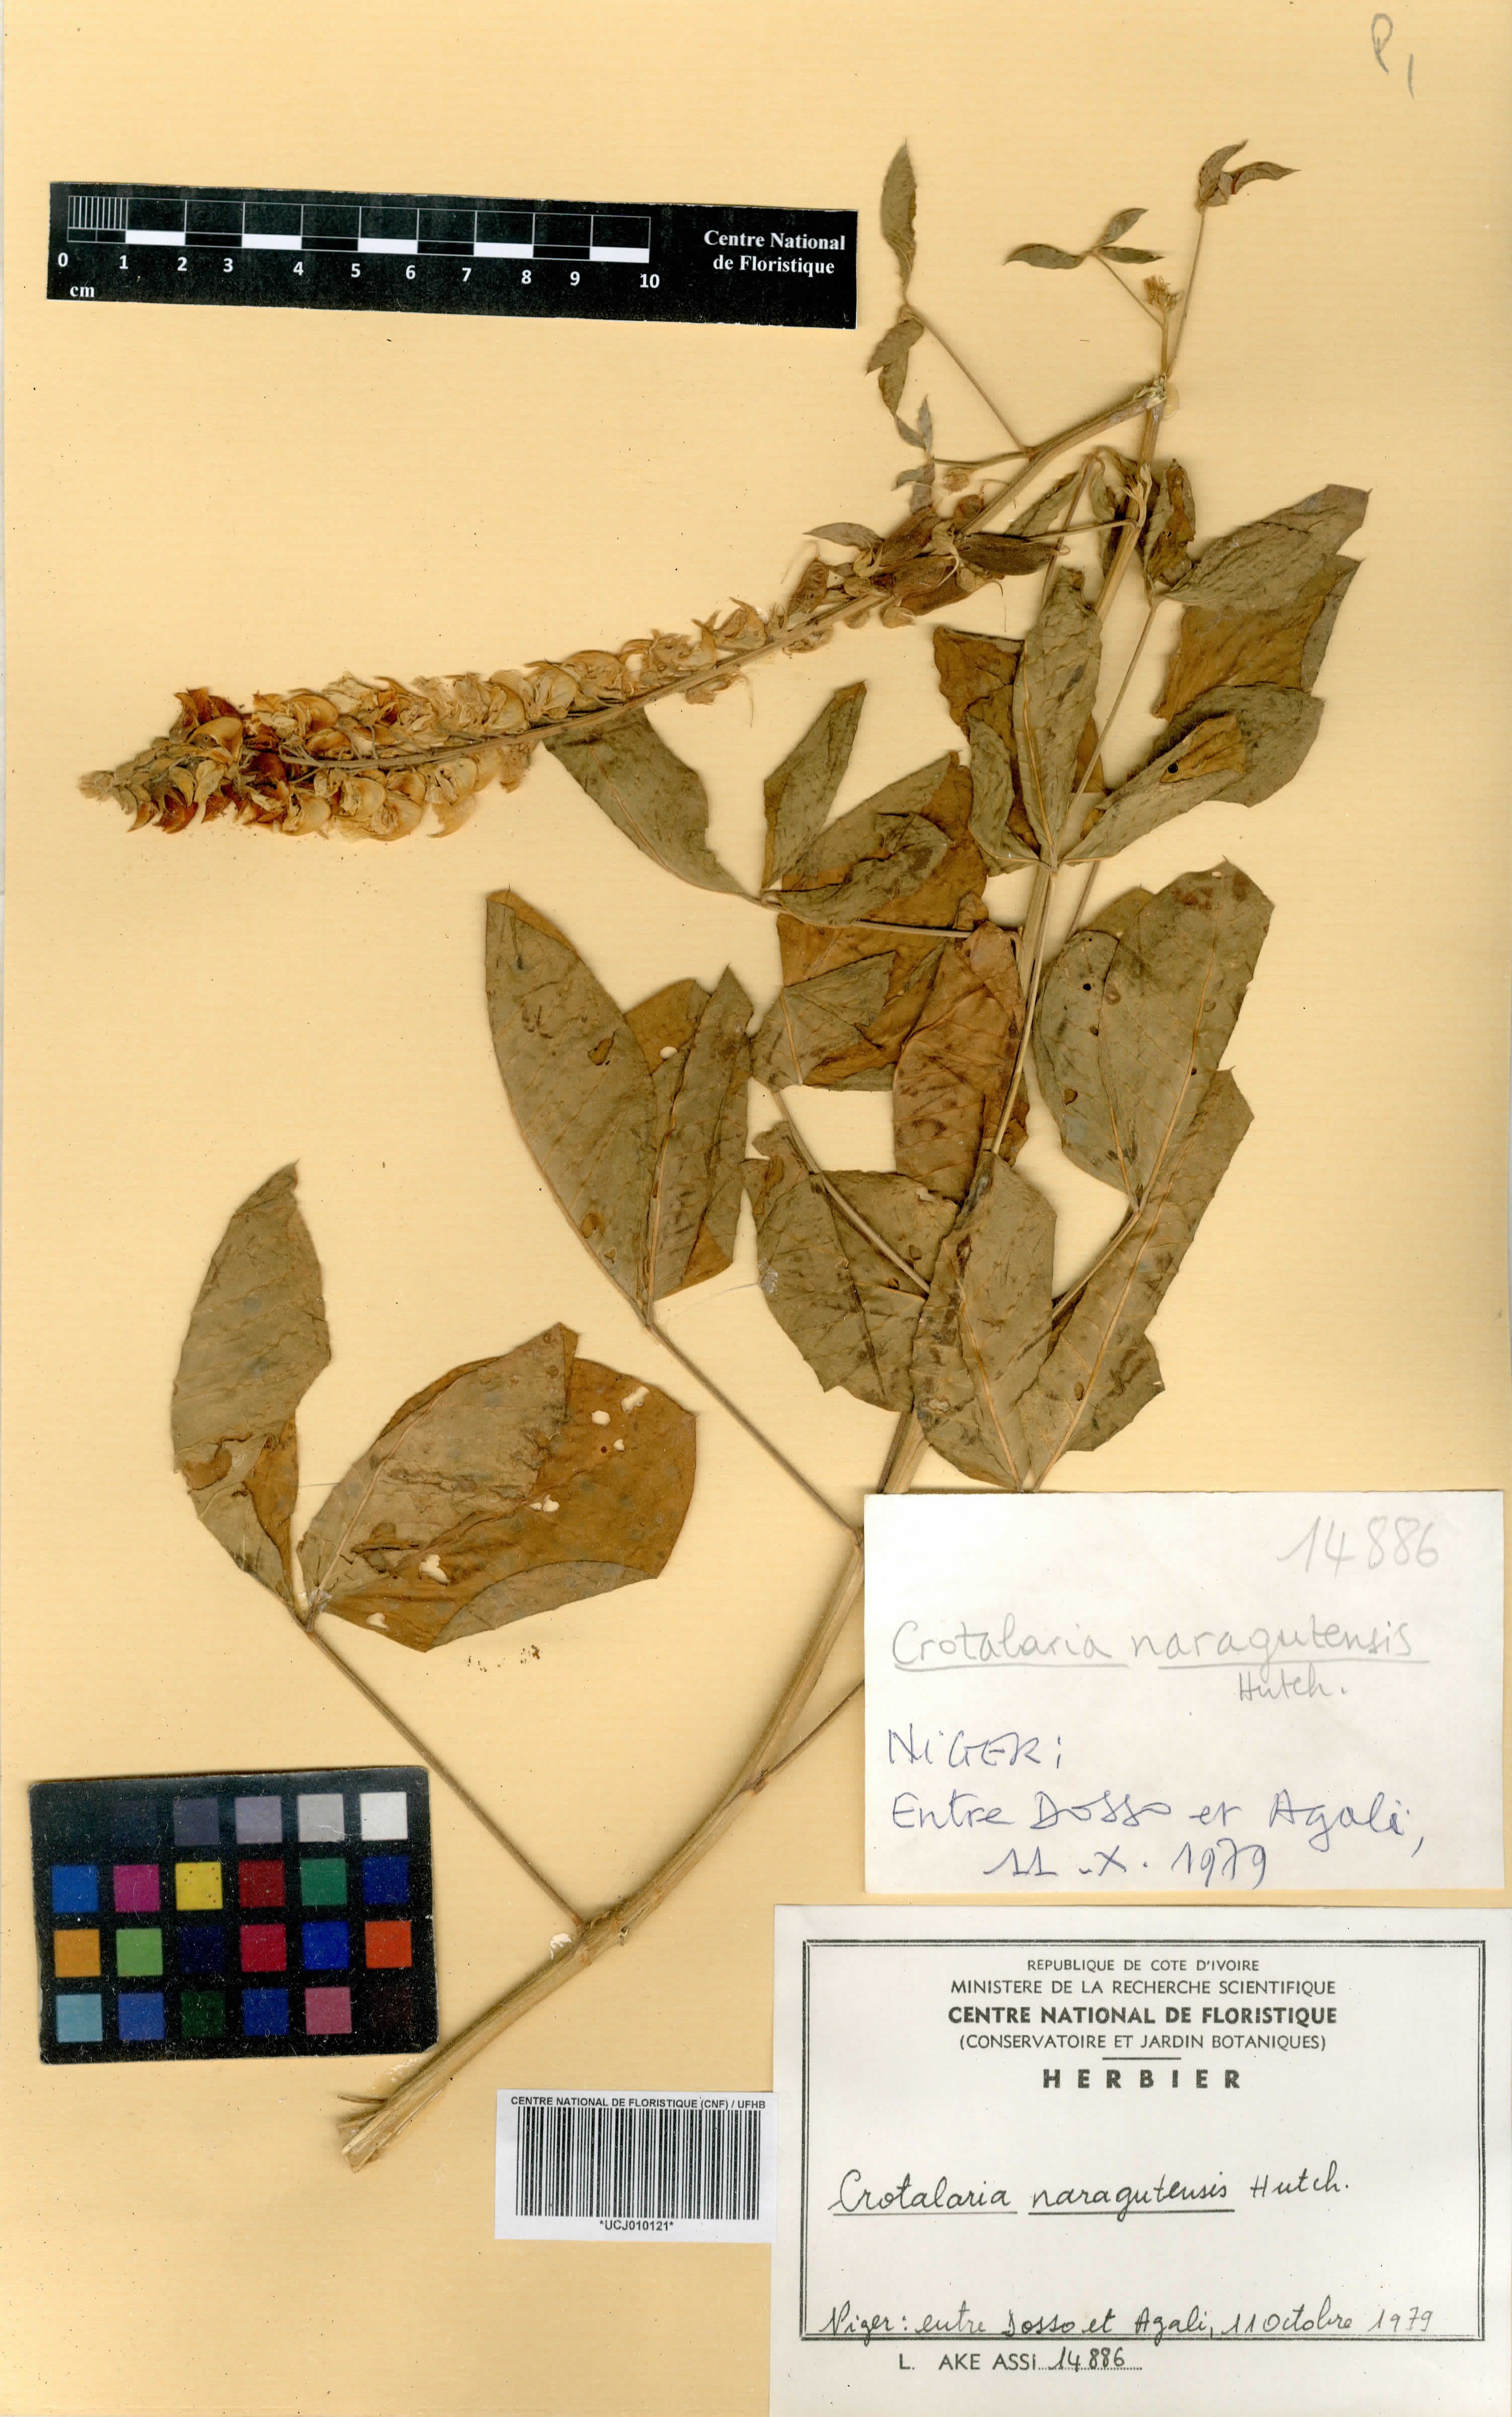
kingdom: Plantae
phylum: Tracheophyta
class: Magnoliopsida
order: Fabales
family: Fabaceae
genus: Crotalaria
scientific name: Crotalaria naragutensis
